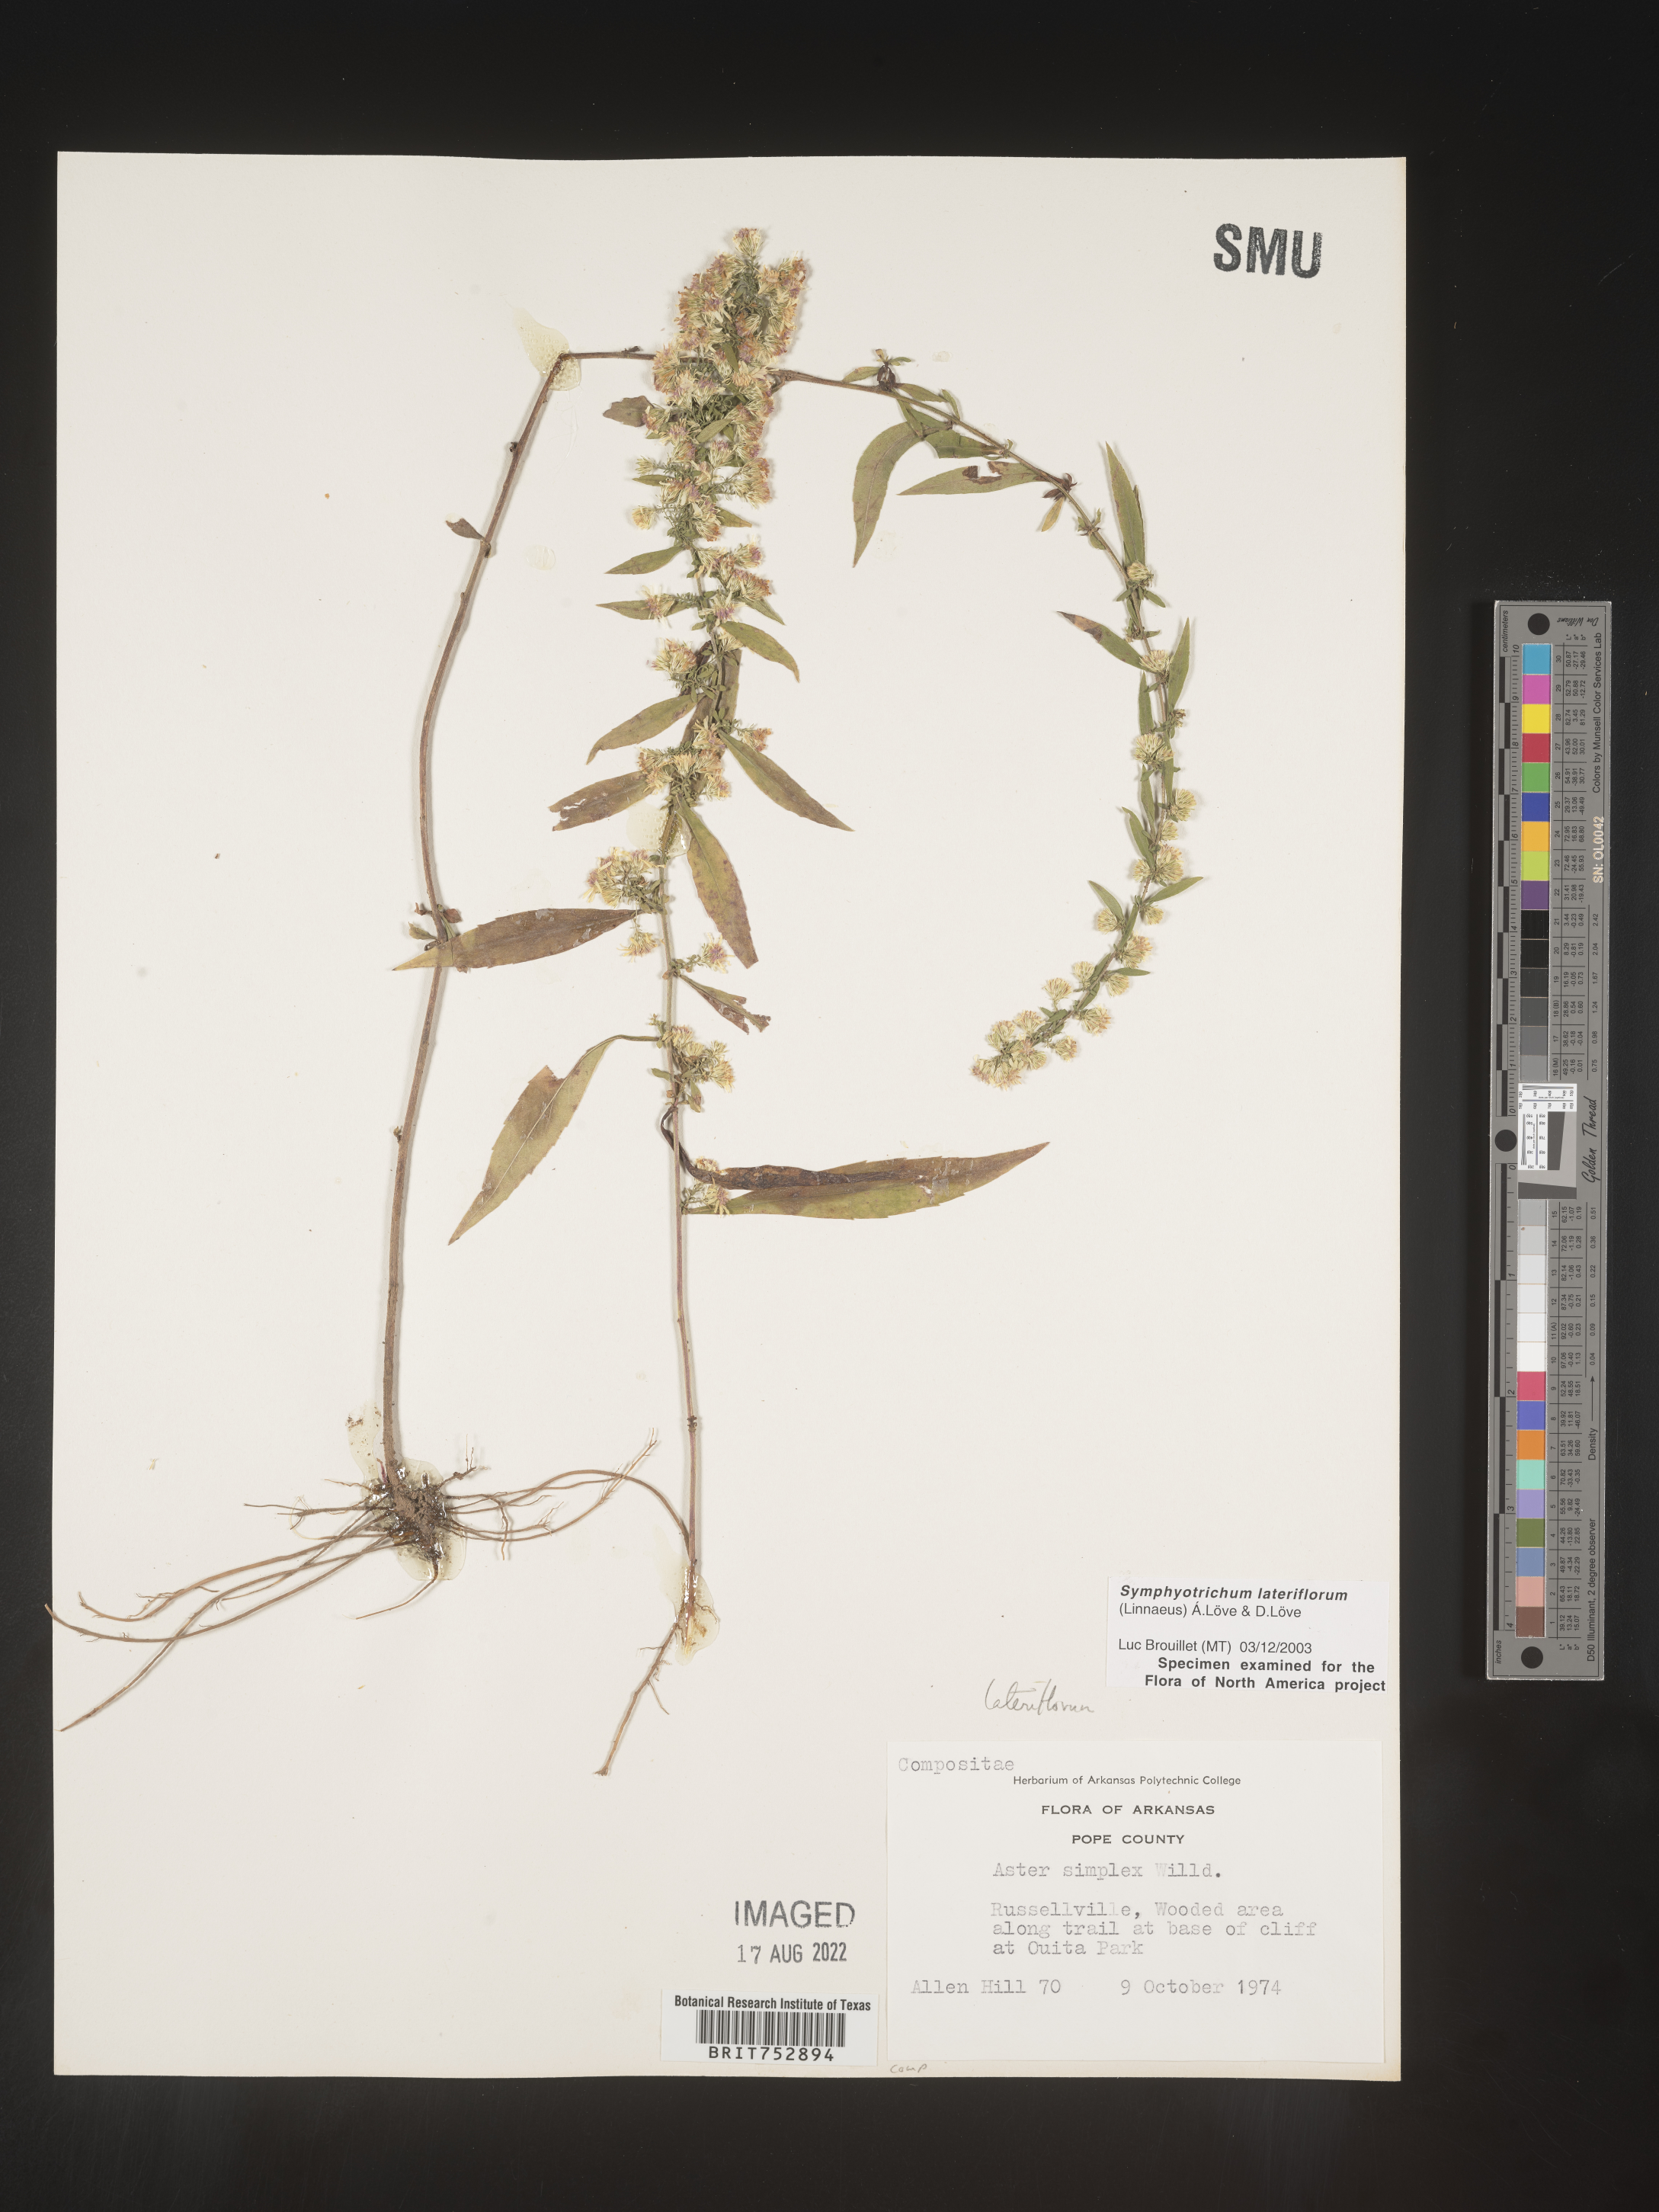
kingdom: Plantae
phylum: Tracheophyta
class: Magnoliopsida
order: Asterales
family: Asteraceae
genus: Symphyotrichum
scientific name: Symphyotrichum lateriflorum
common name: Calico aster
